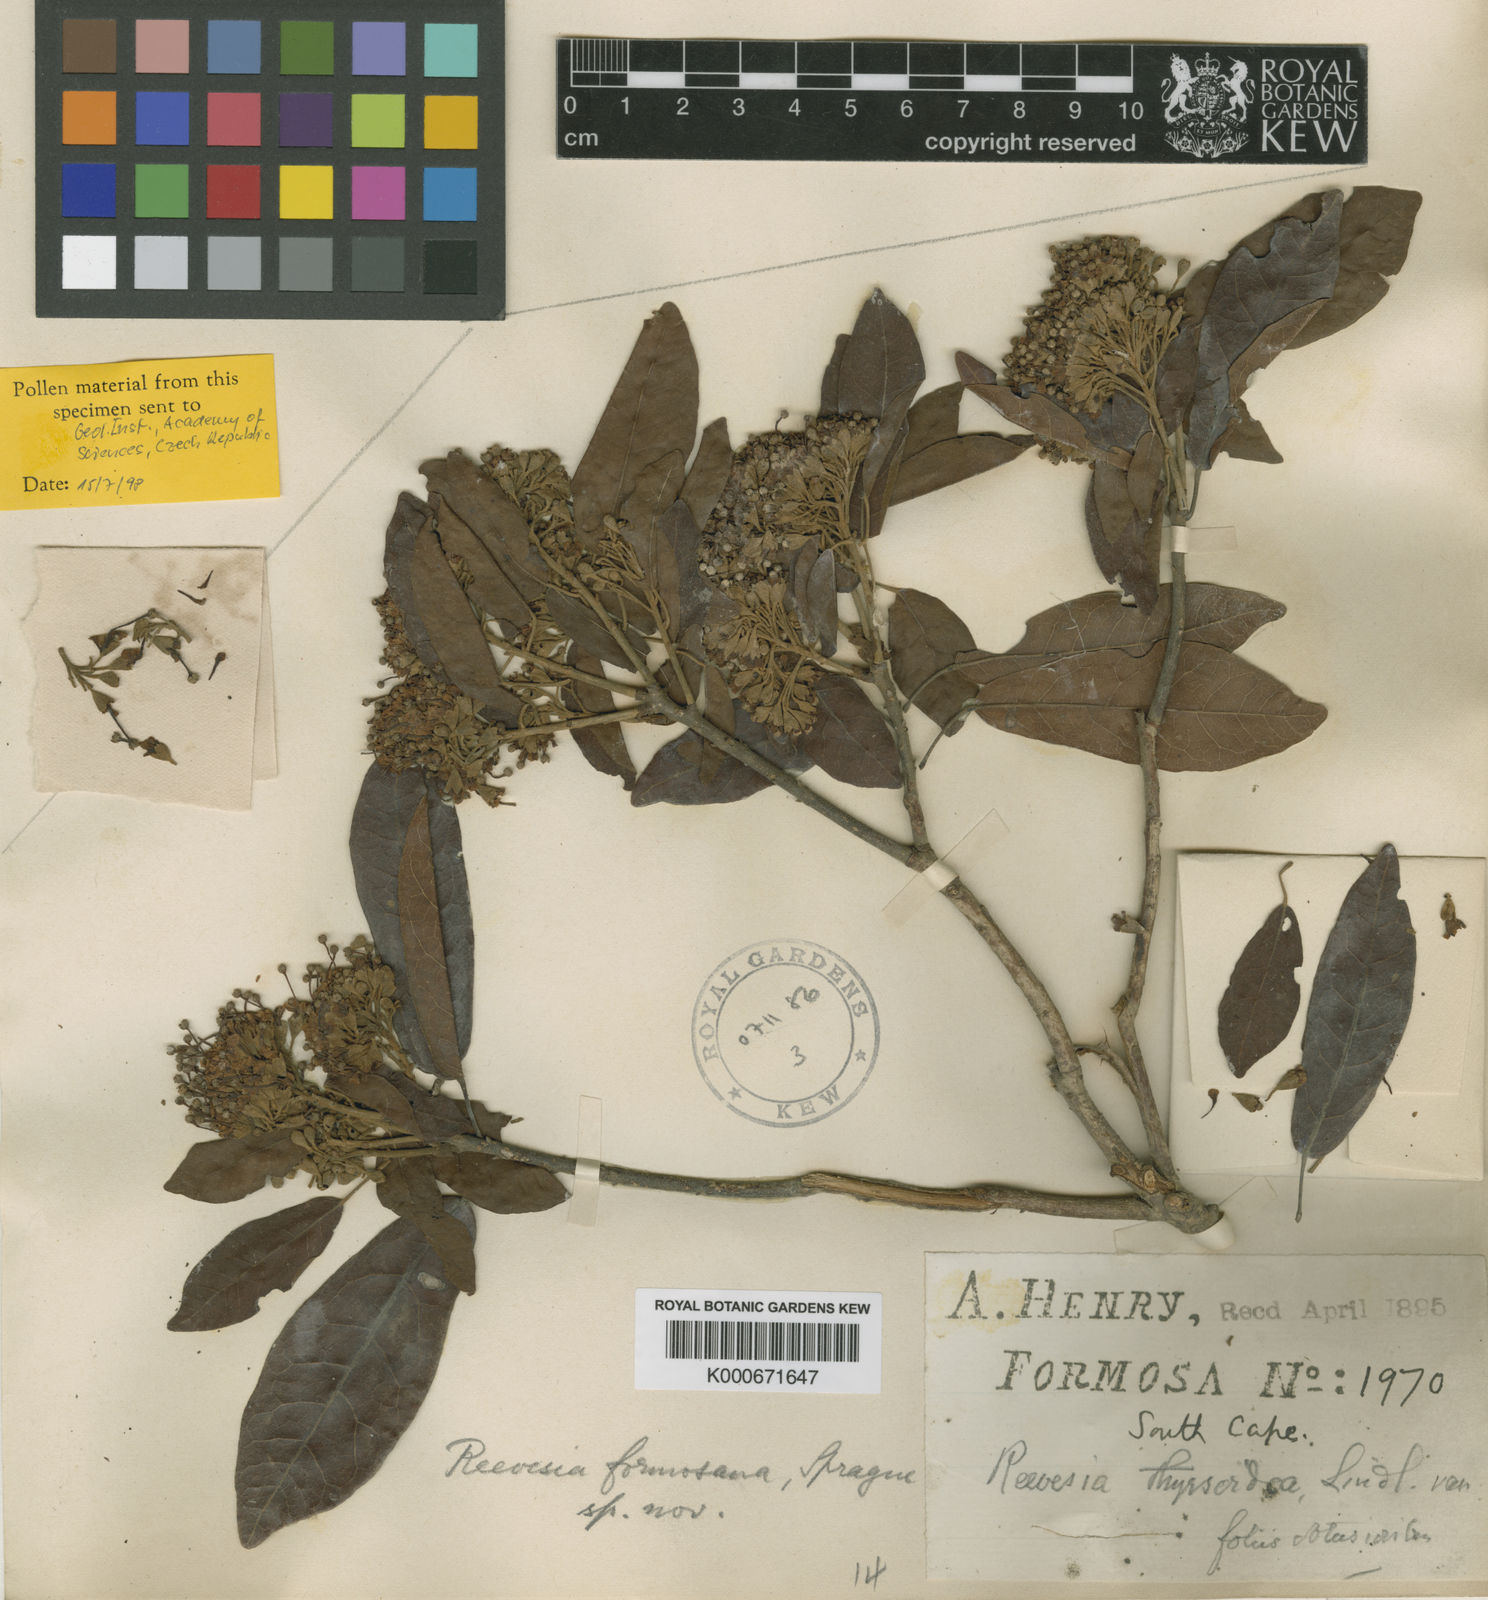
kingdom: Plantae
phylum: Tracheophyta
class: Magnoliopsida
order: Malvales
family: Malvaceae
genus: Reevesia
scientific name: Reevesia thyrsoidea
